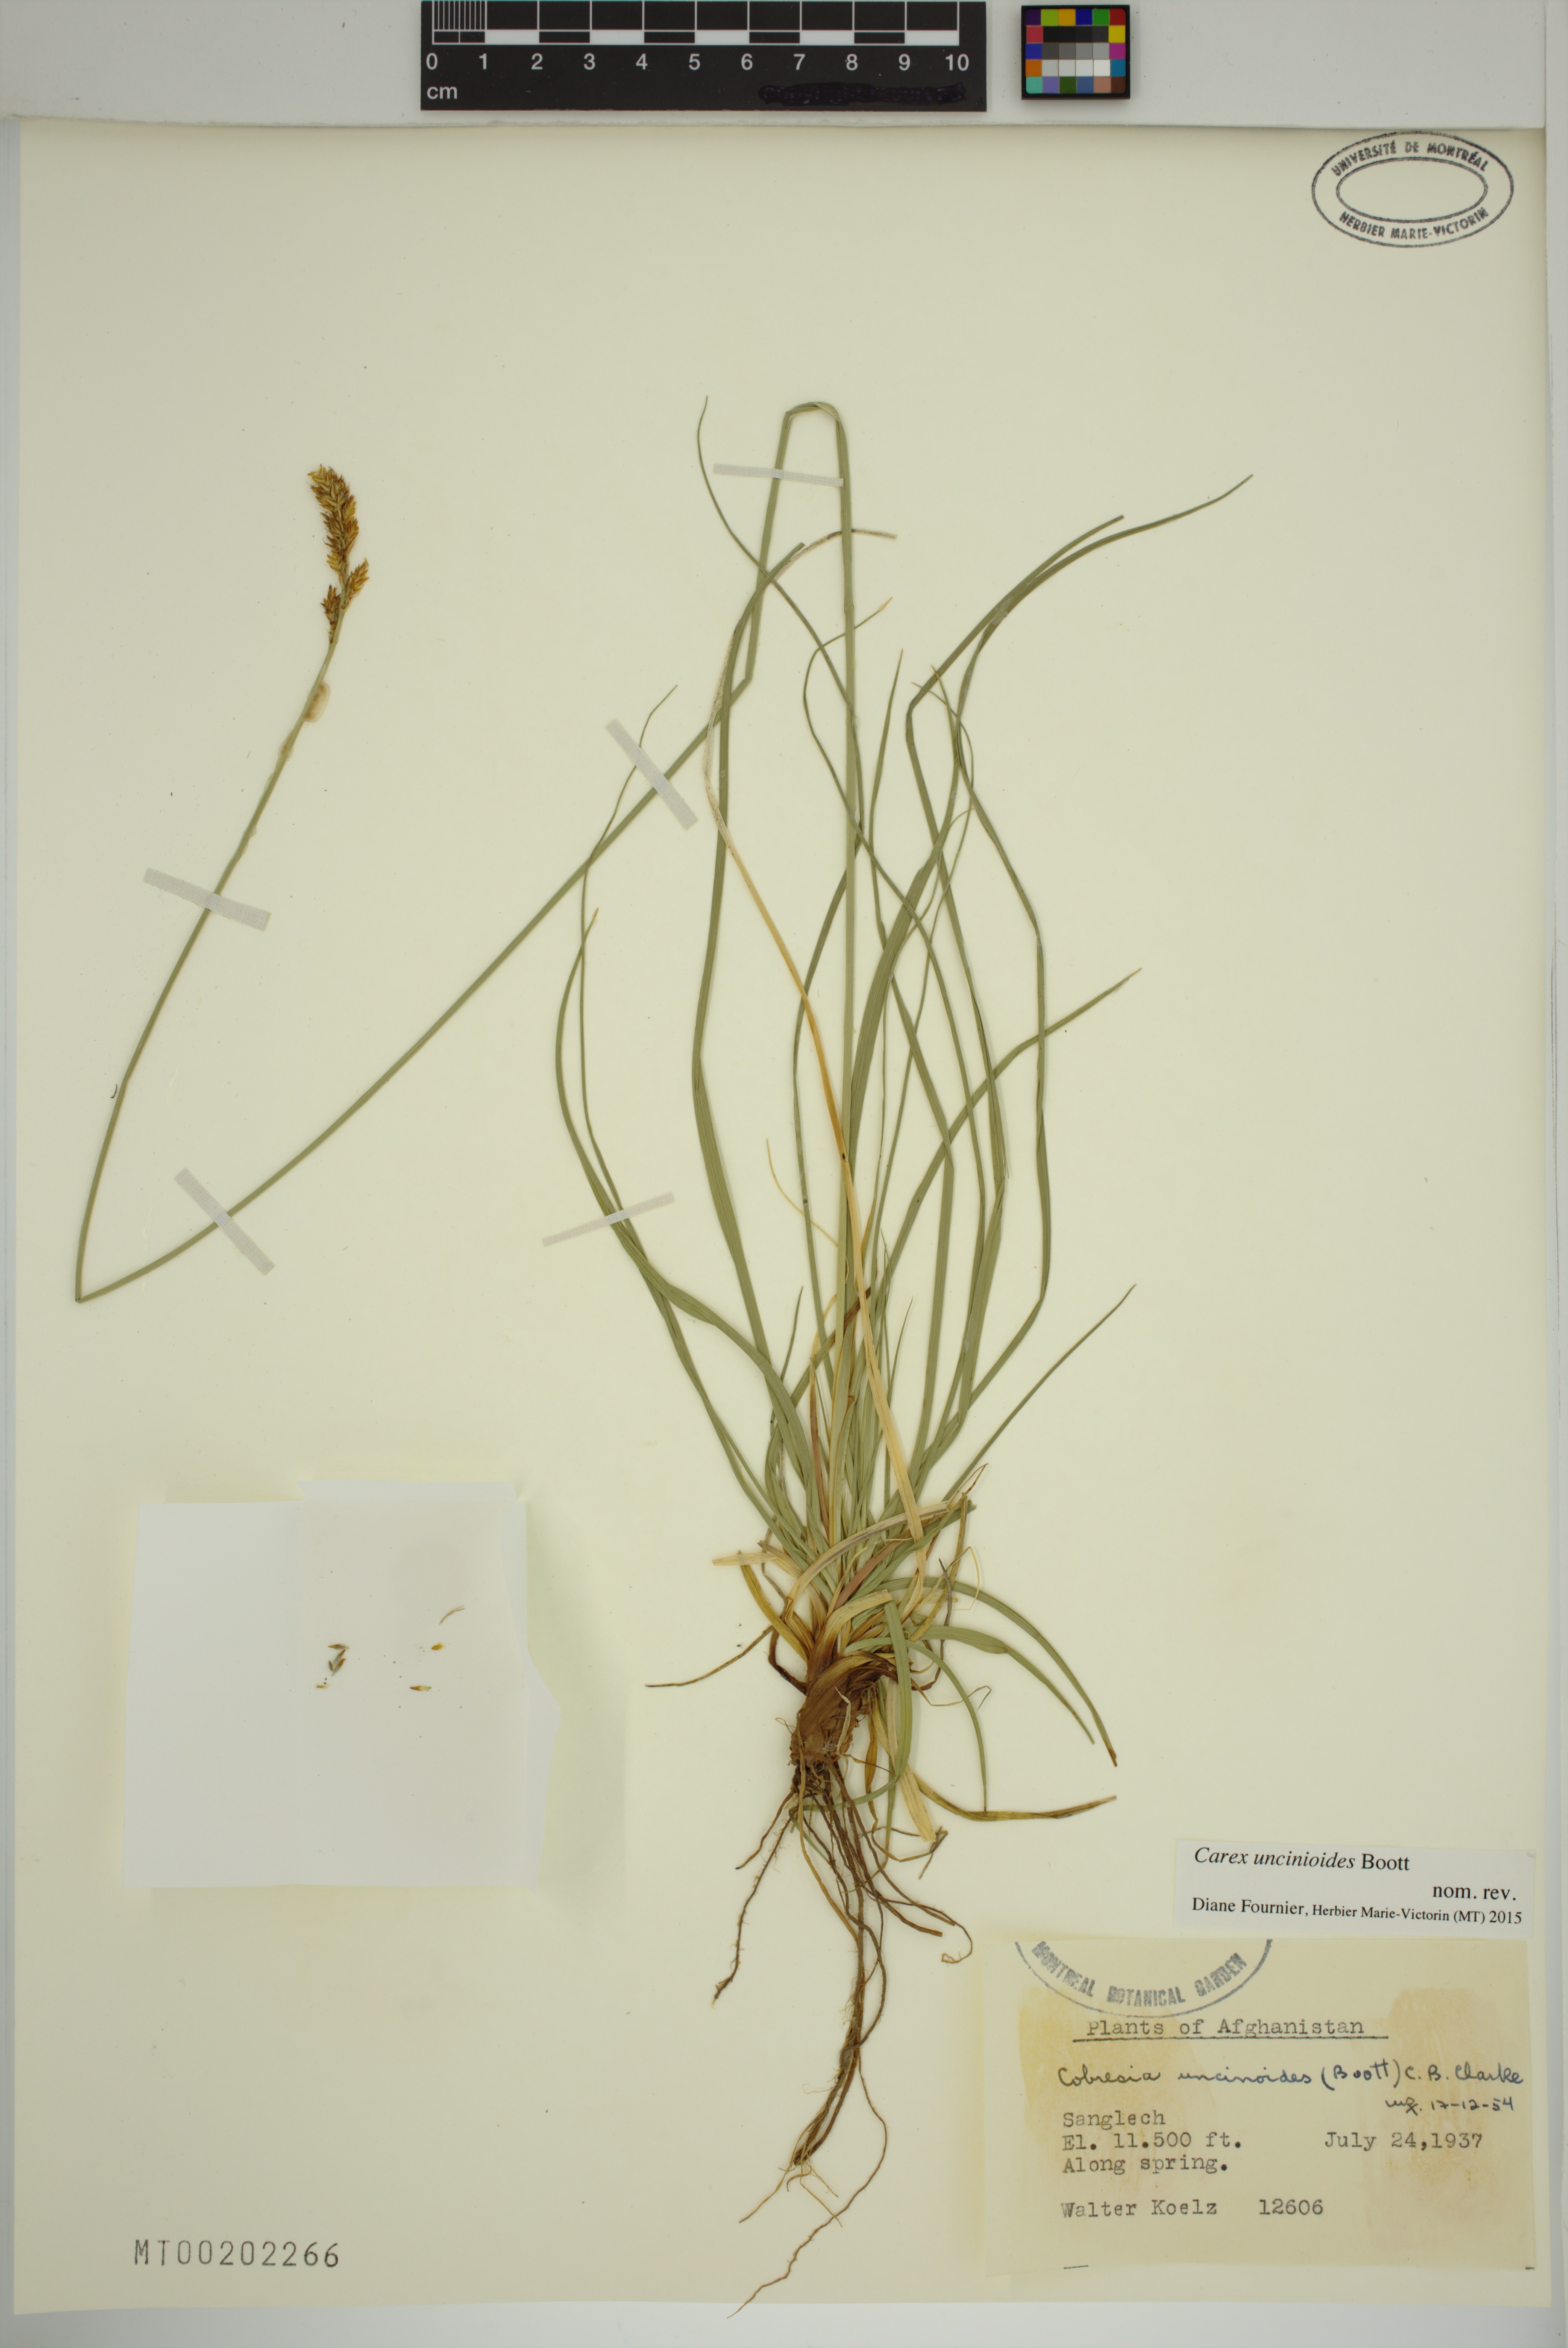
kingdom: Plantae
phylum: Tracheophyta
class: Liliopsida
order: Poales
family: Cyperaceae
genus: Carex
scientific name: Carex uncinioides
